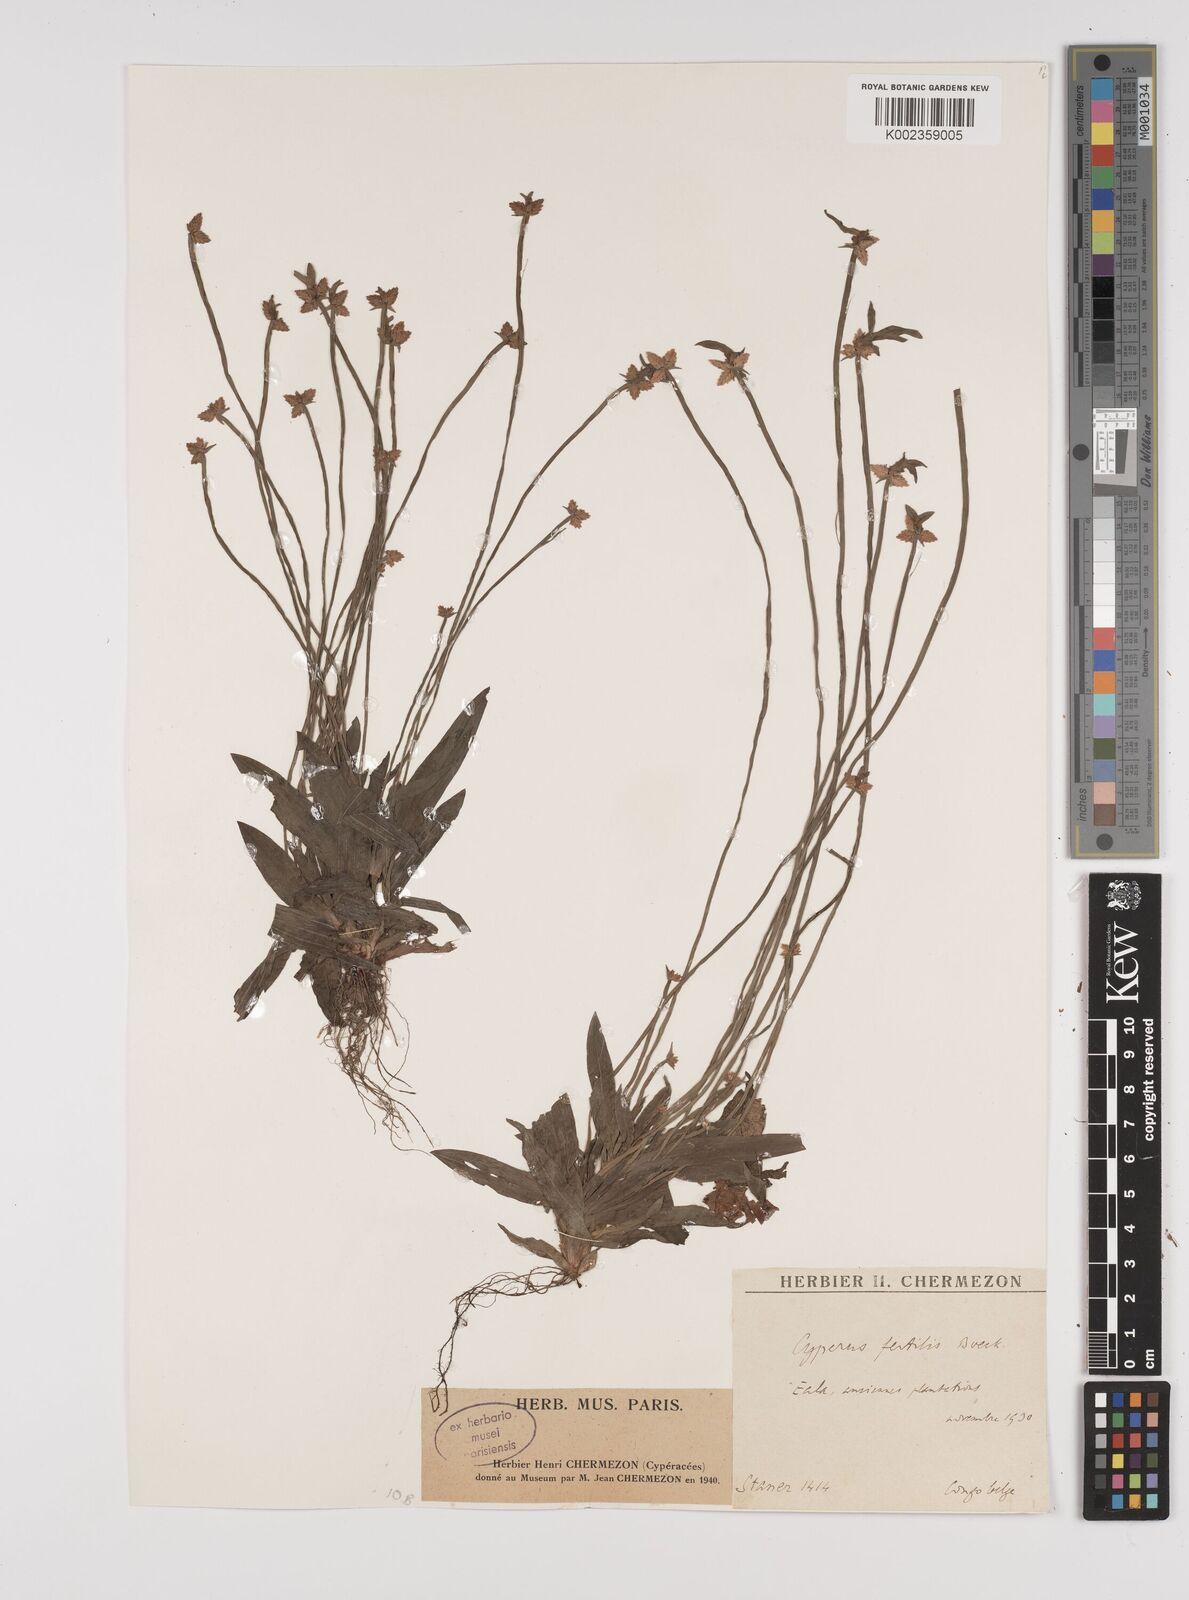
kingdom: Plantae
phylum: Tracheophyta
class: Liliopsida
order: Poales
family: Cyperaceae
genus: Cyperus
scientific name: Cyperus fertilis
